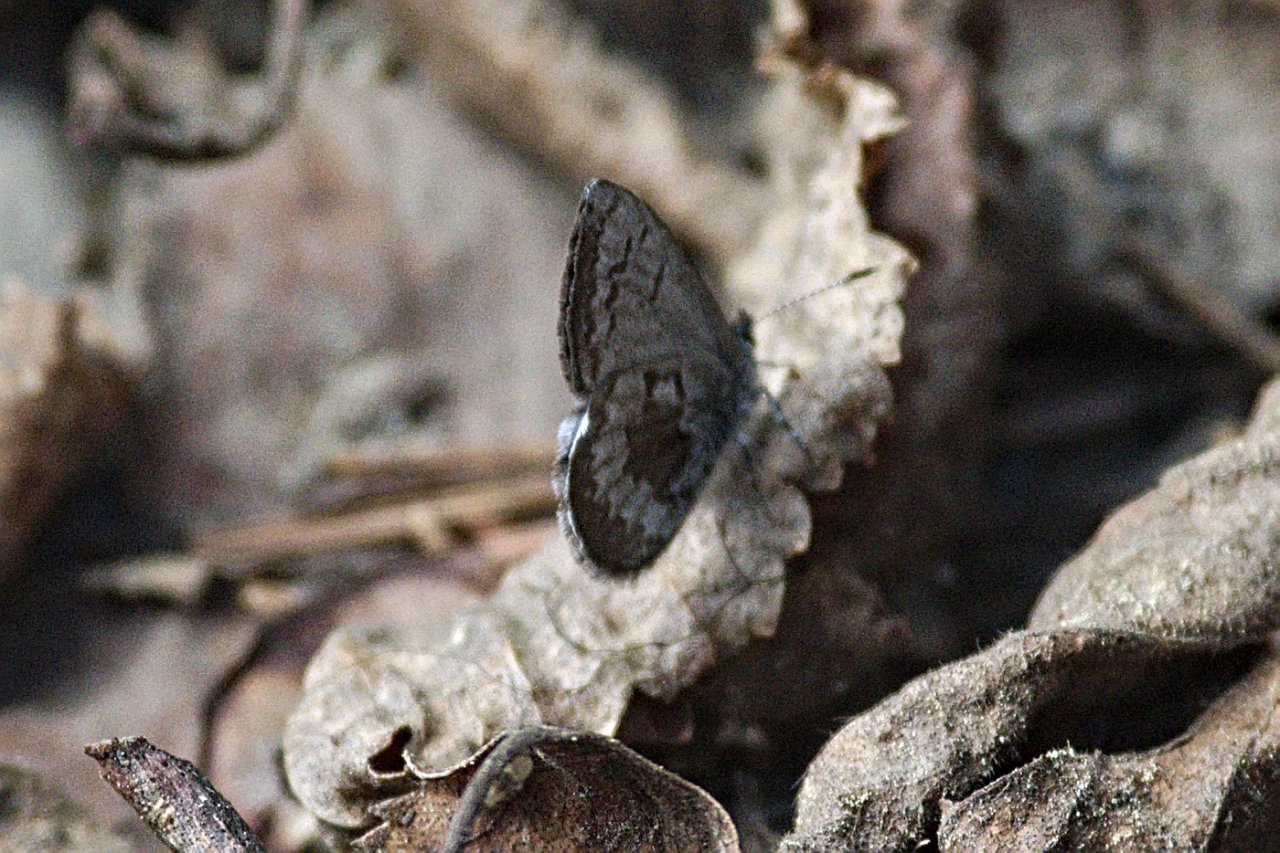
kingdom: Animalia
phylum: Arthropoda
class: Insecta
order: Lepidoptera
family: Lycaenidae
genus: Celastrina
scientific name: Celastrina lucia
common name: Northern Spring Azure
